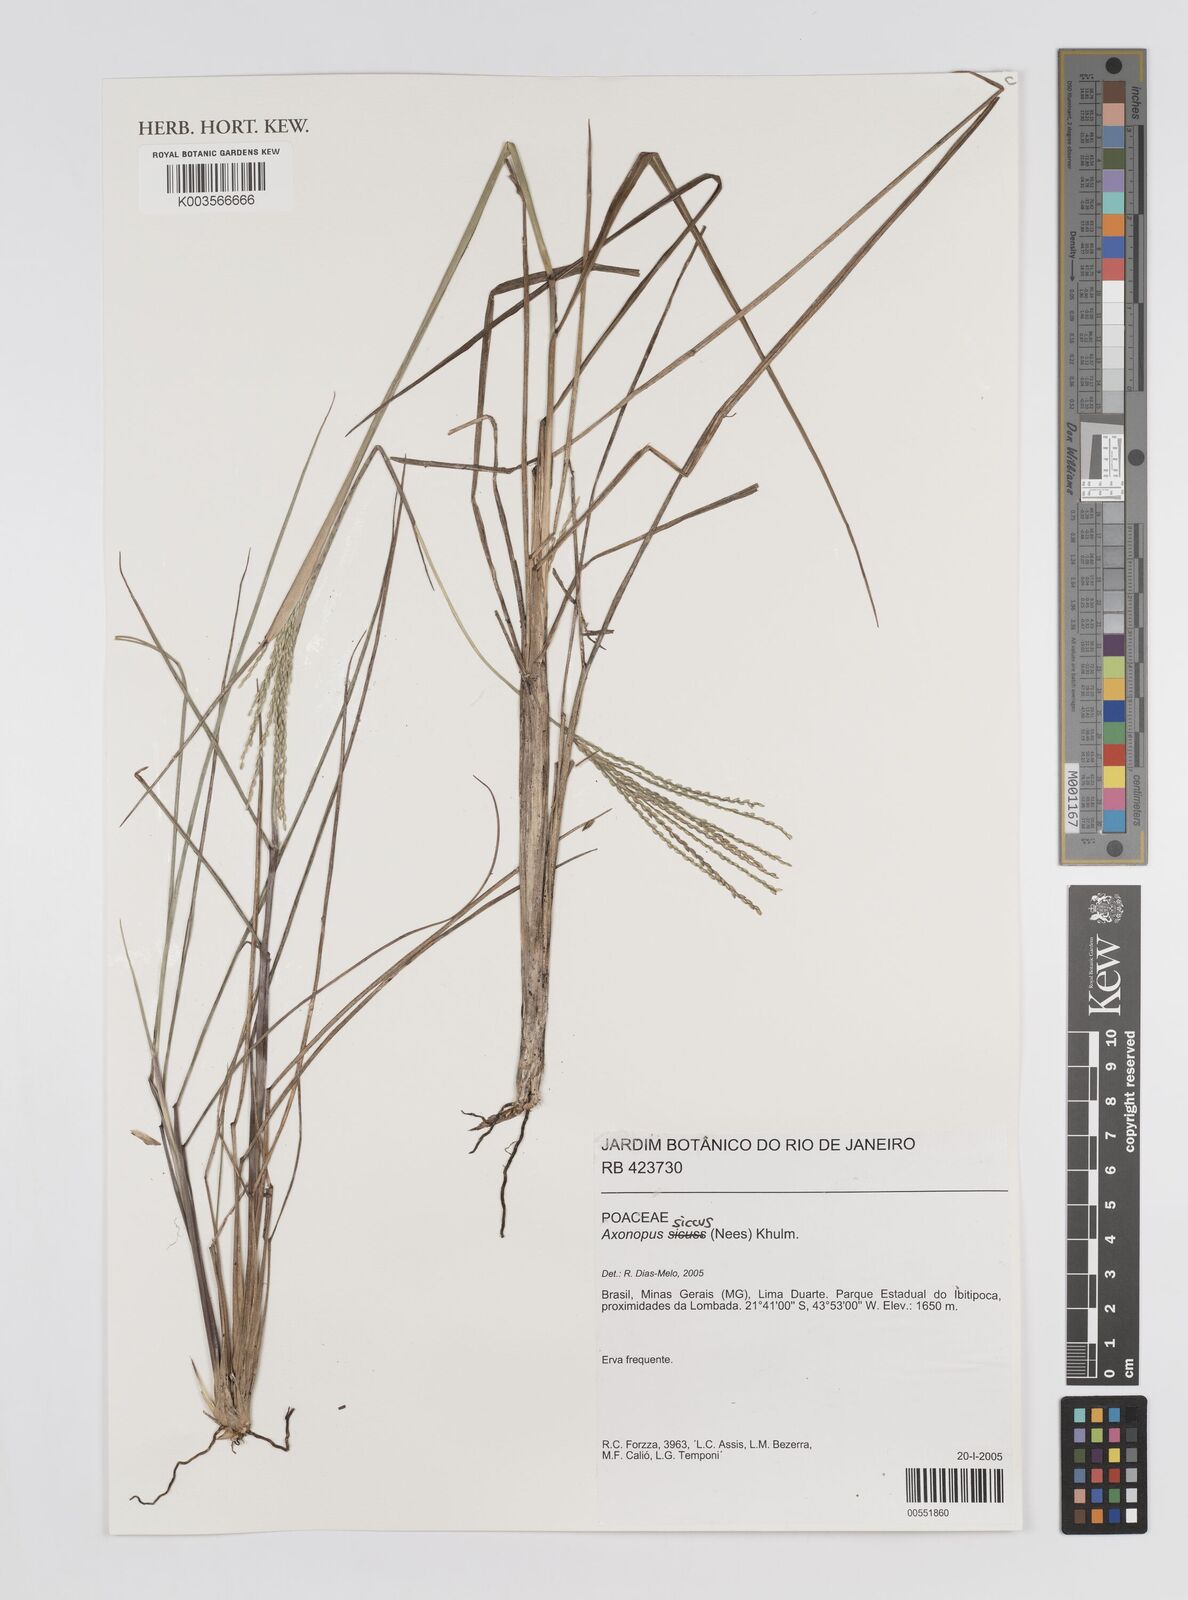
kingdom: Plantae
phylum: Tracheophyta
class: Liliopsida
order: Poales
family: Poaceae
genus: Axonopus
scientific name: Axonopus siccus
